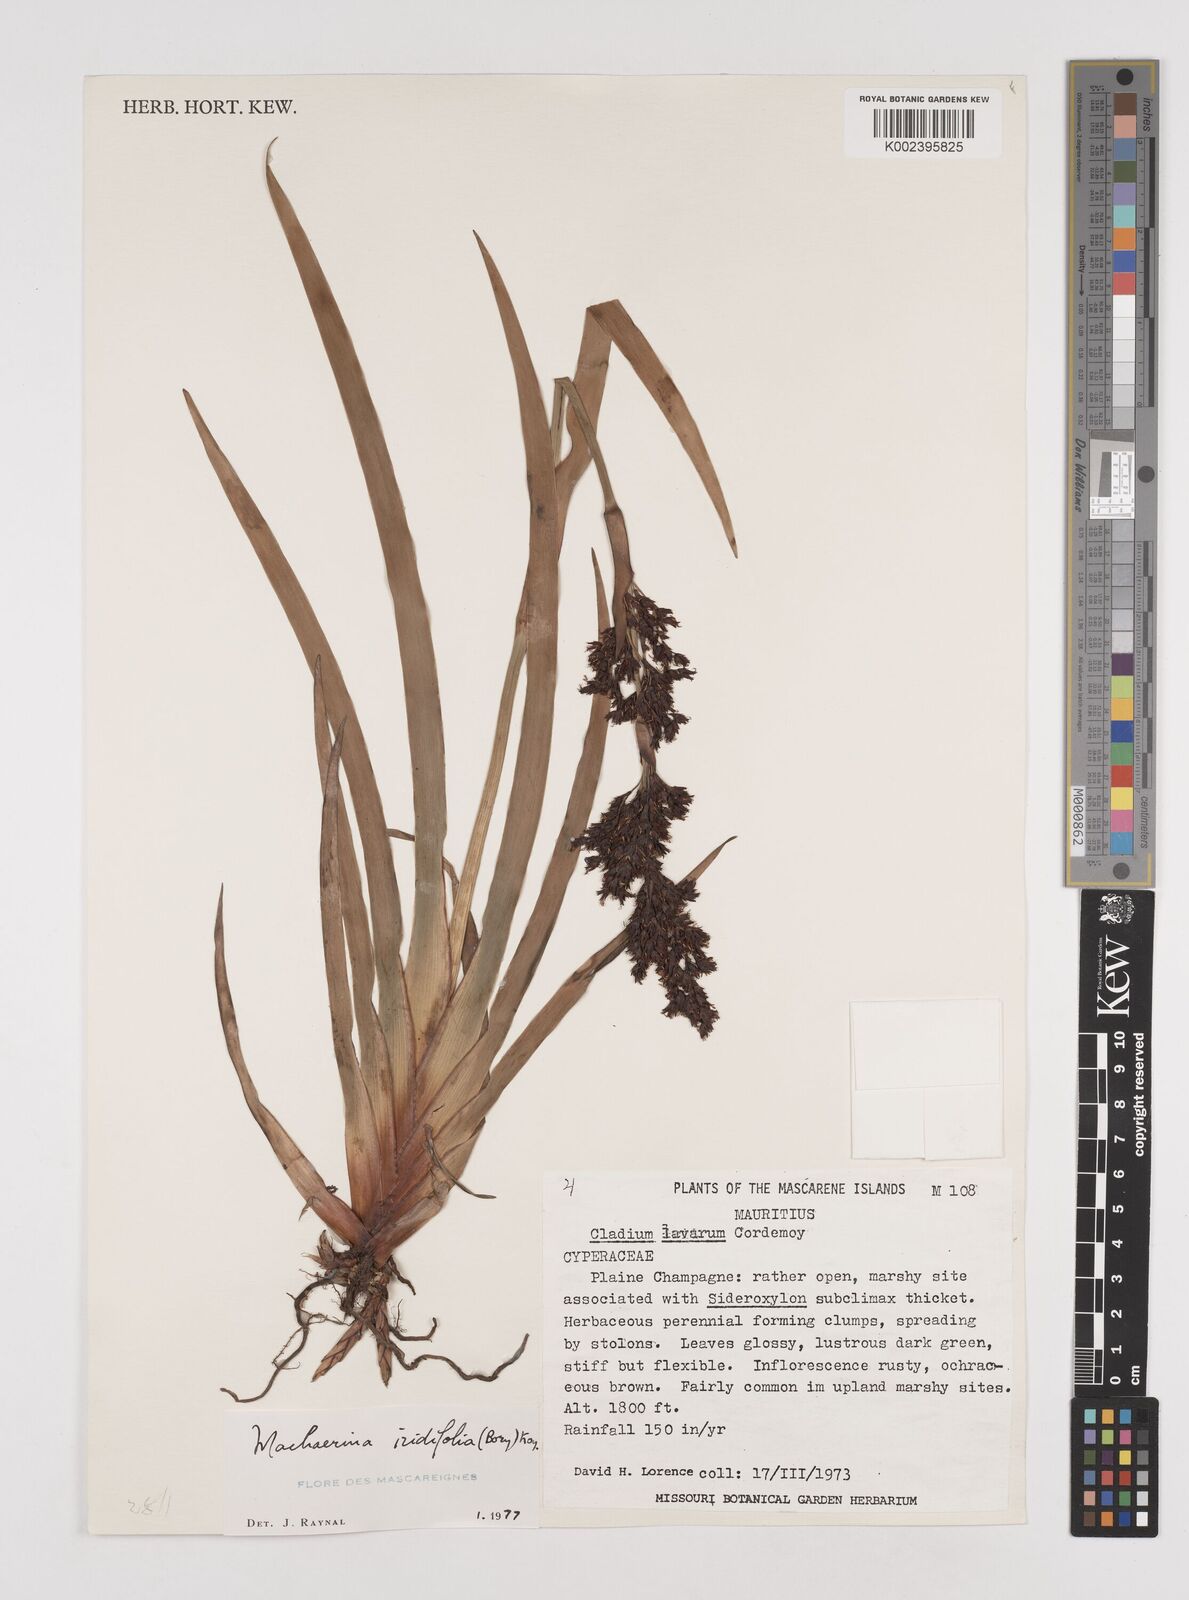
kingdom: Plantae
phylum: Tracheophyta
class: Liliopsida
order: Poales
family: Cyperaceae
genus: Machaerina
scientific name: Machaerina iridifolia
